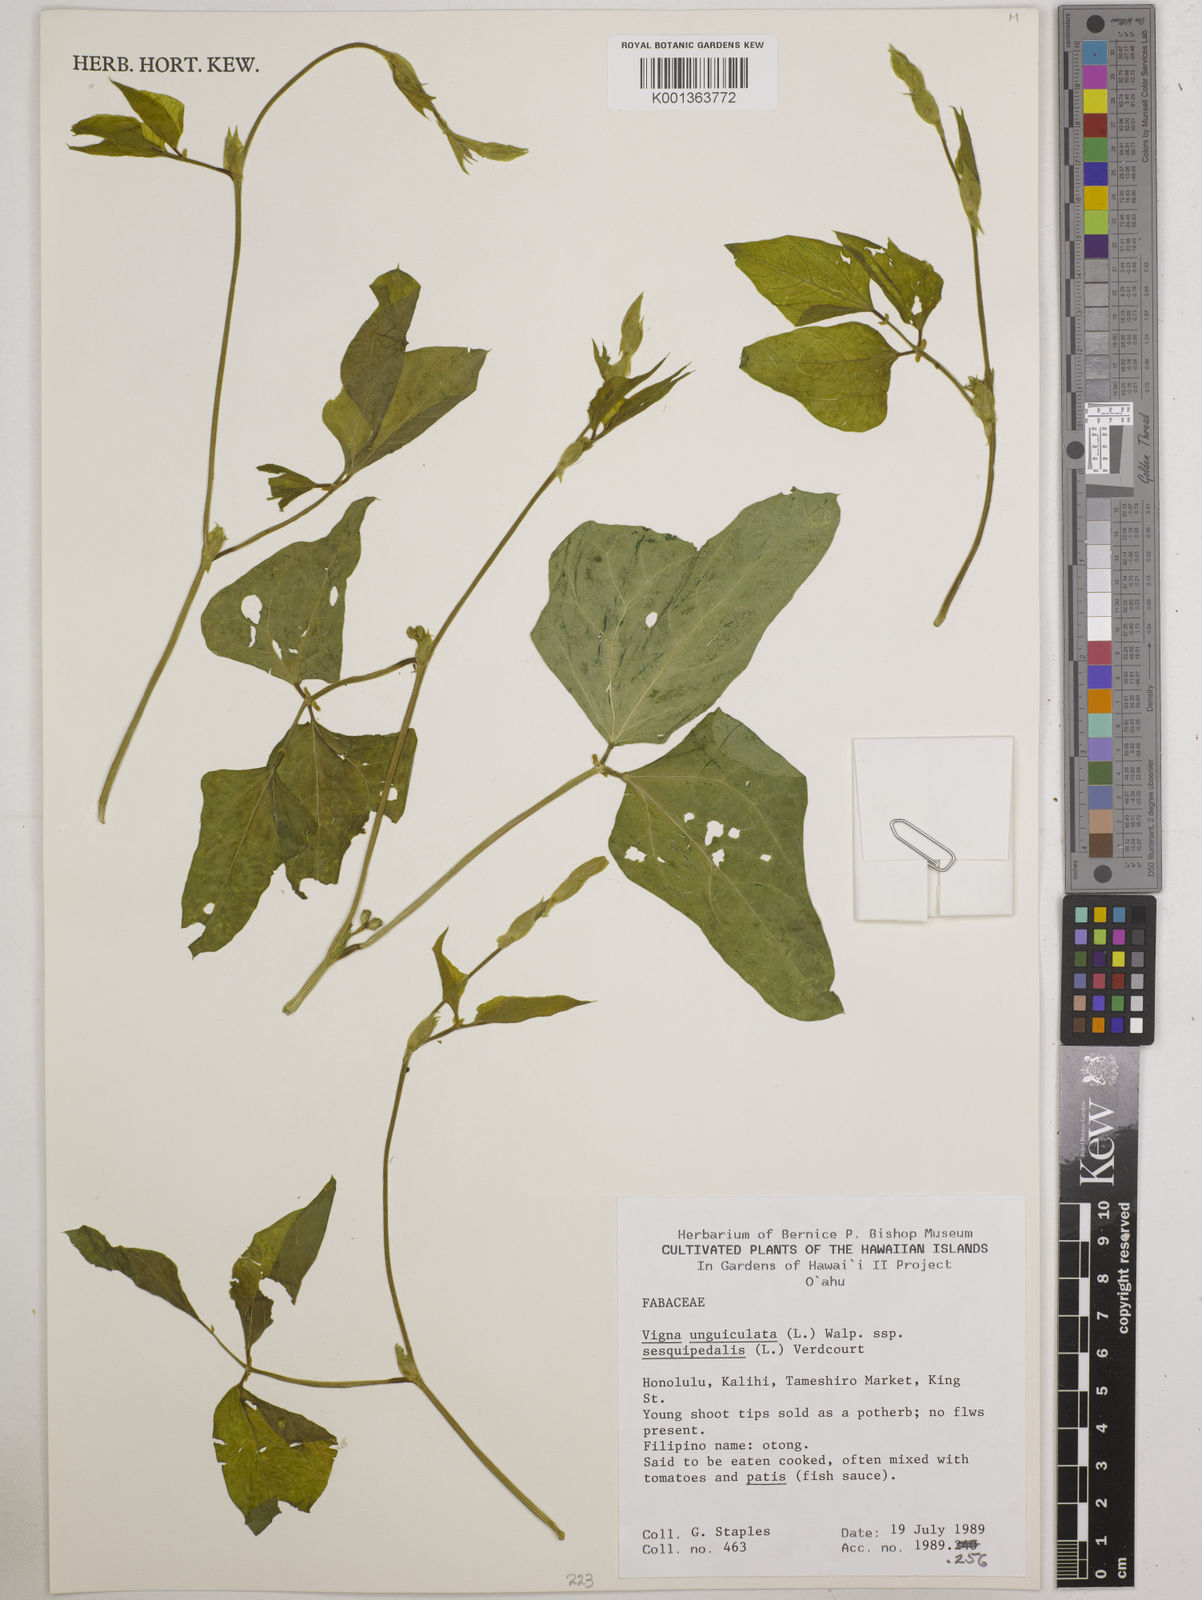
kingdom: Plantae
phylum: Tracheophyta
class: Magnoliopsida
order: Fabales
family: Fabaceae
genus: Vigna
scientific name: Vigna unguiculata
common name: Cowpea
